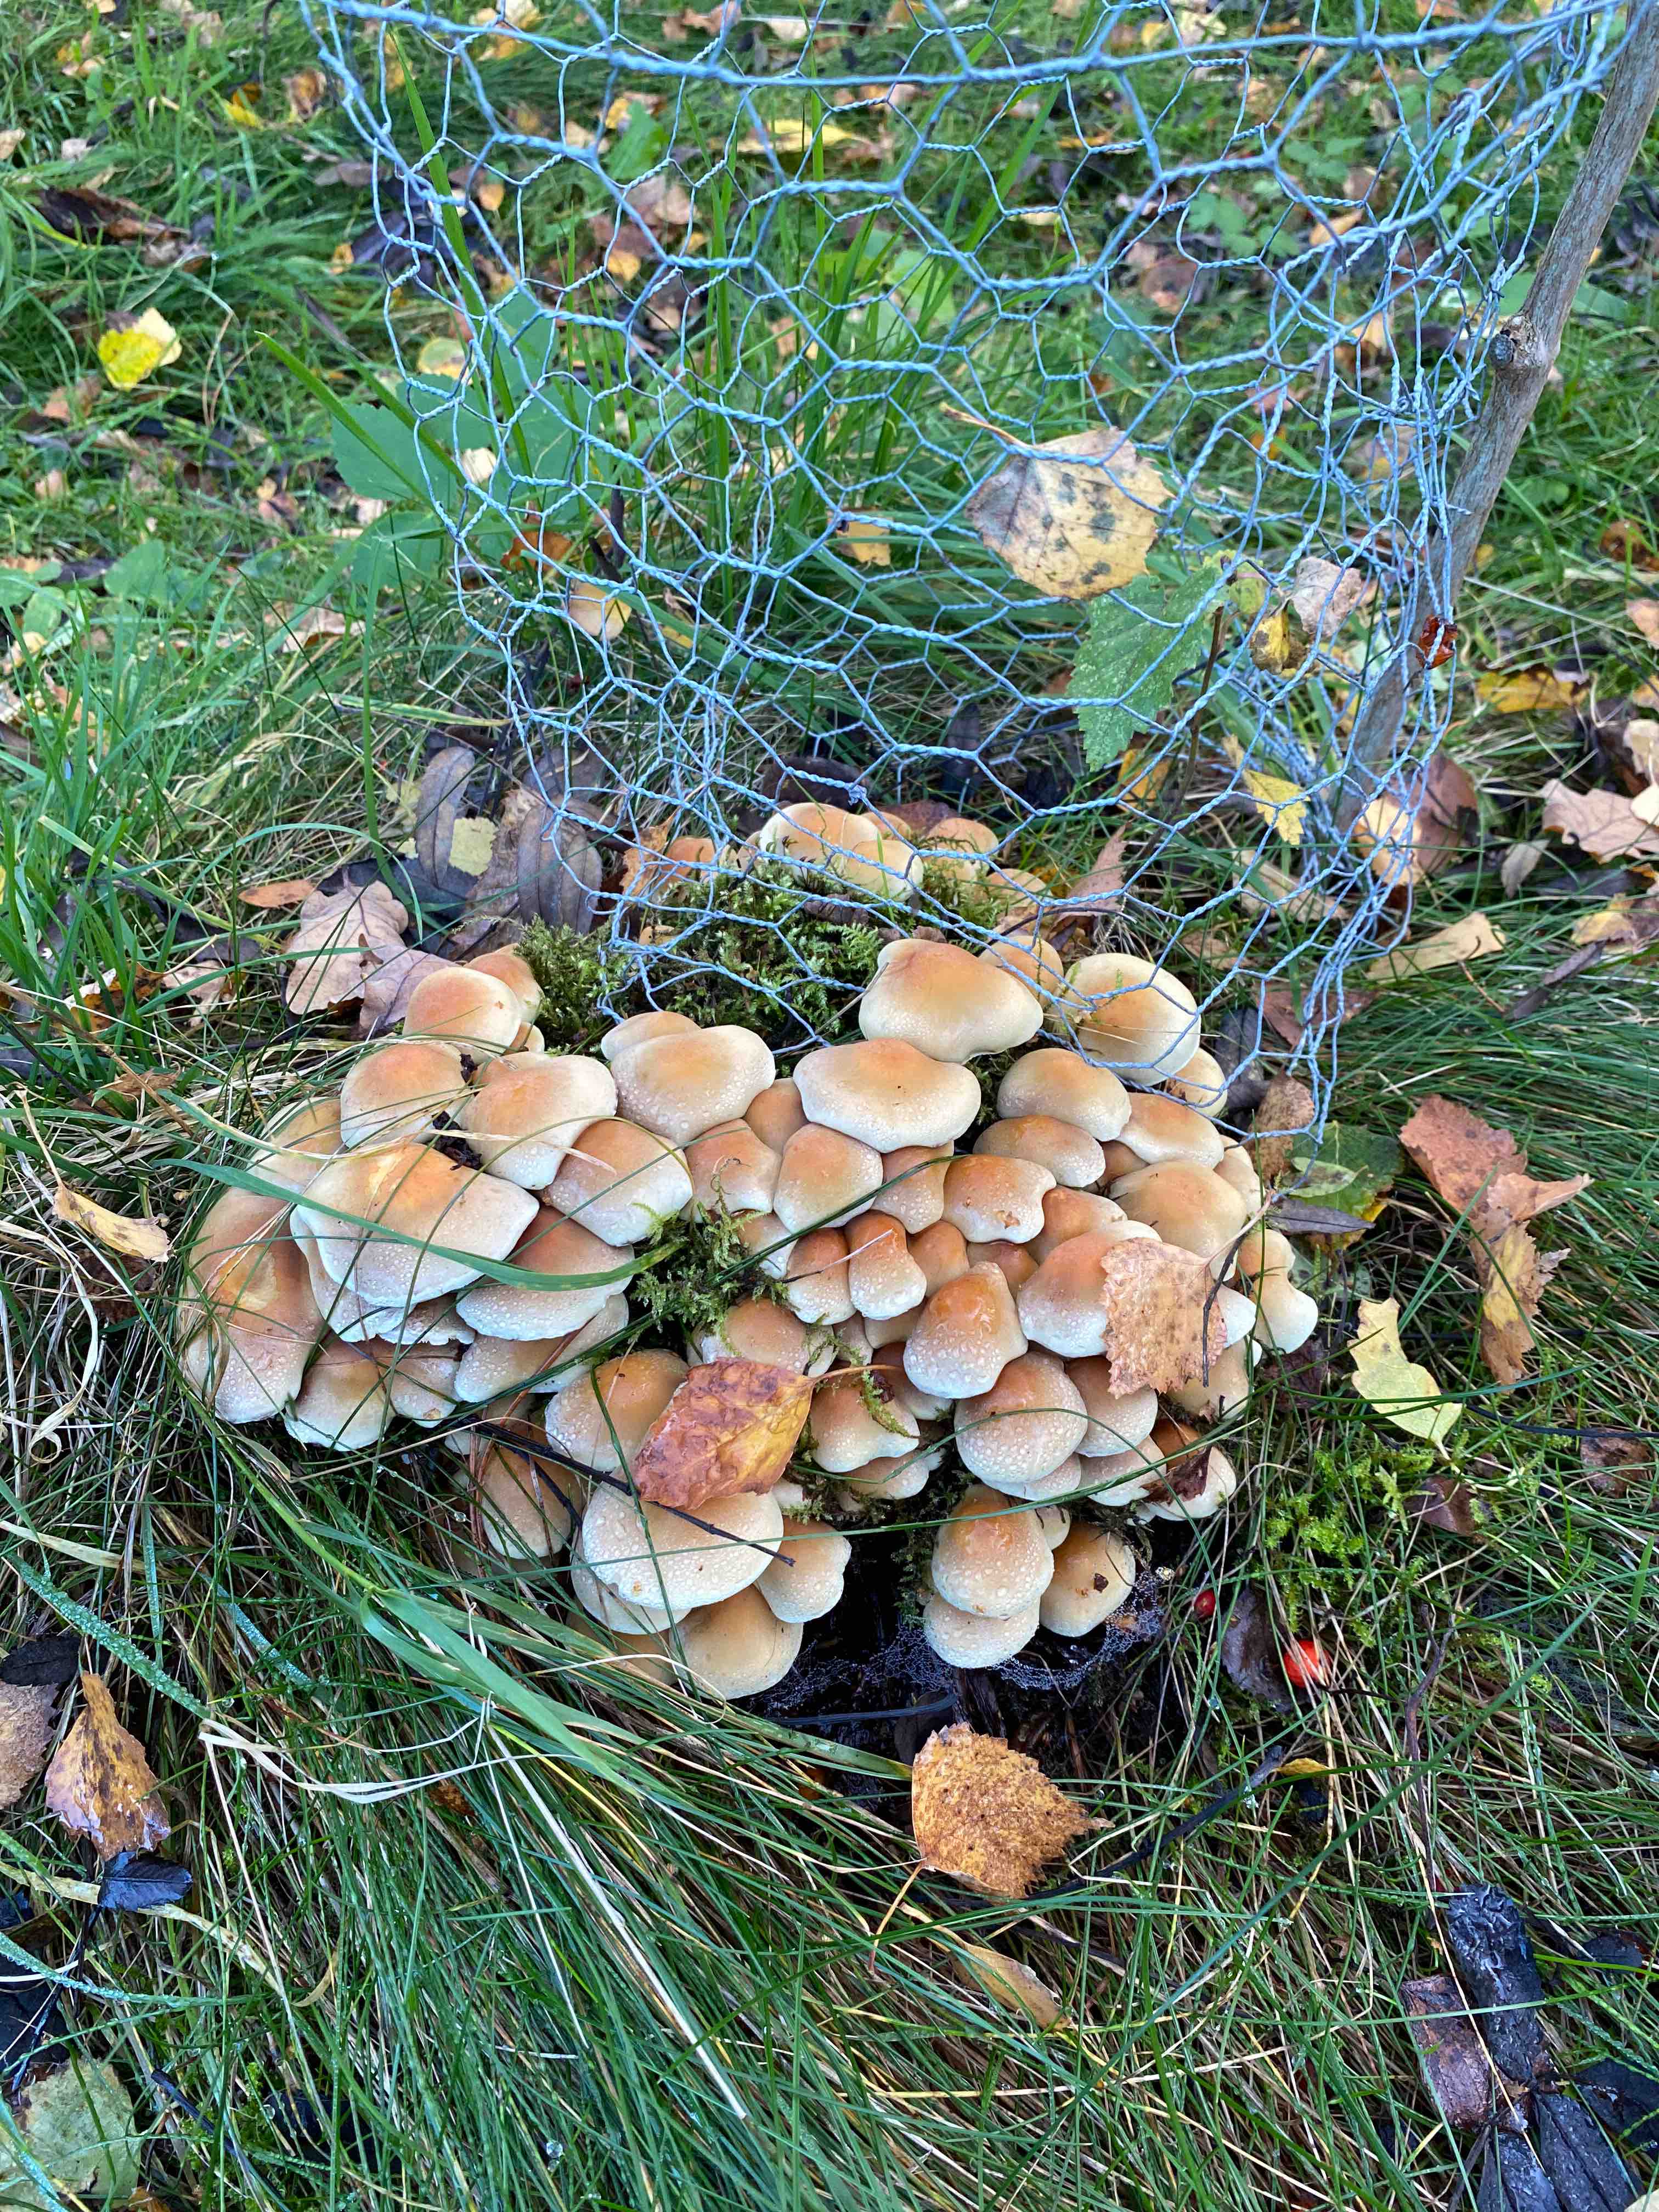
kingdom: Fungi
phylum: Basidiomycota
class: Agaricomycetes
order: Agaricales
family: Strophariaceae
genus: Hypholoma
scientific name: Hypholoma fasciculare
